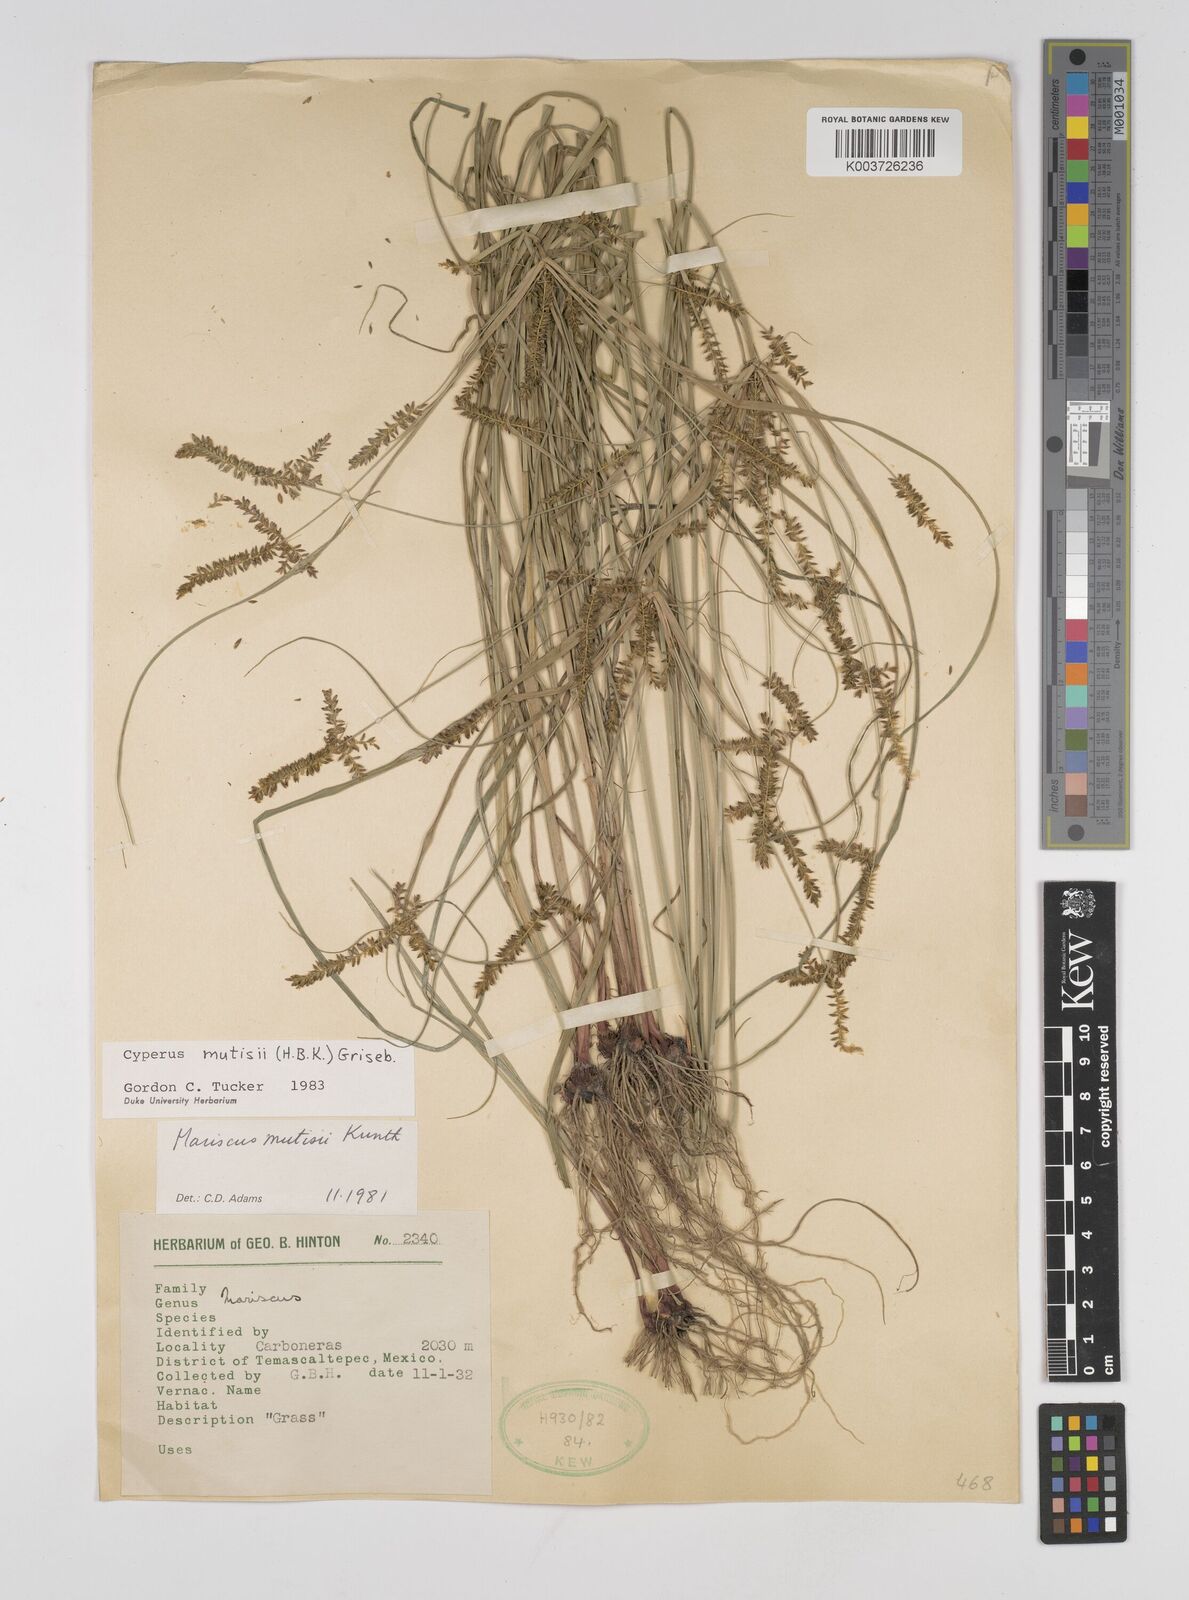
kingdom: Plantae
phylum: Tracheophyta
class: Liliopsida
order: Poales
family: Cyperaceae
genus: Cyperus
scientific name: Cyperus mutisii
